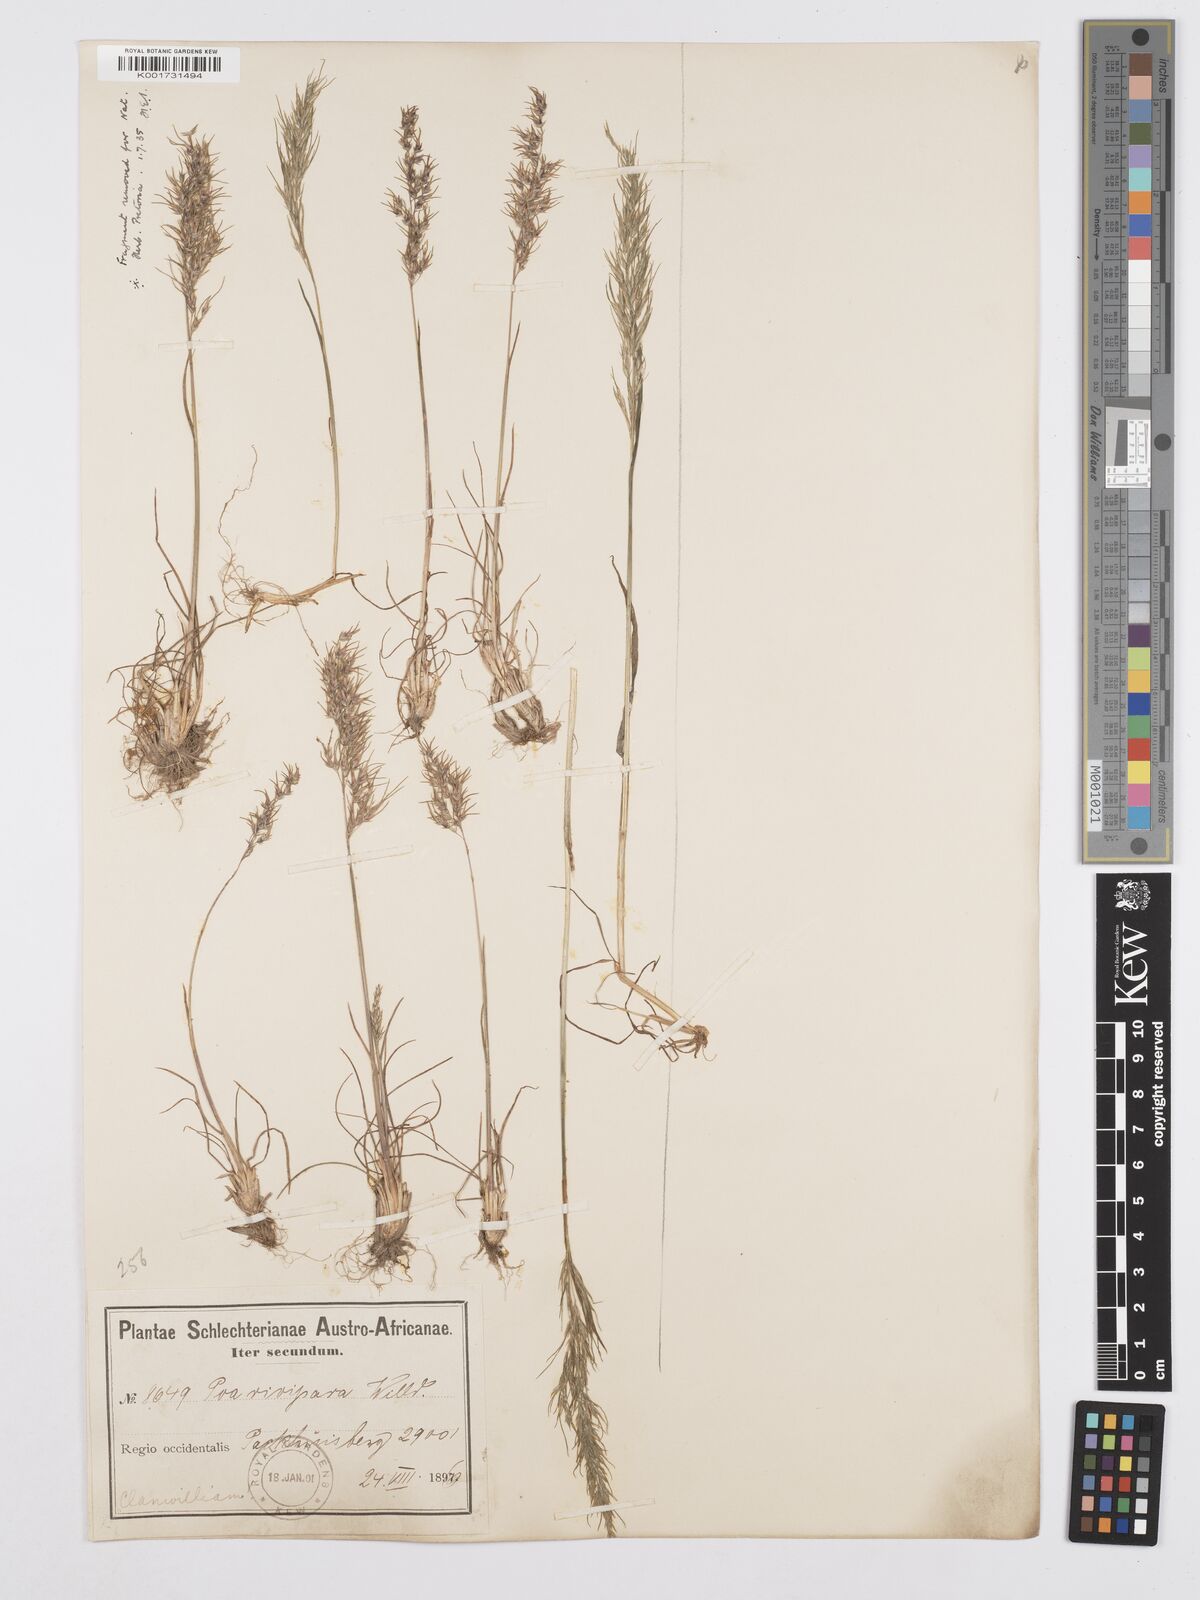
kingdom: Plantae
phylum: Tracheophyta
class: Liliopsida
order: Poales
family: Poaceae
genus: Poa
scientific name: Poa bulbosa
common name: Bulbous bluegrass
